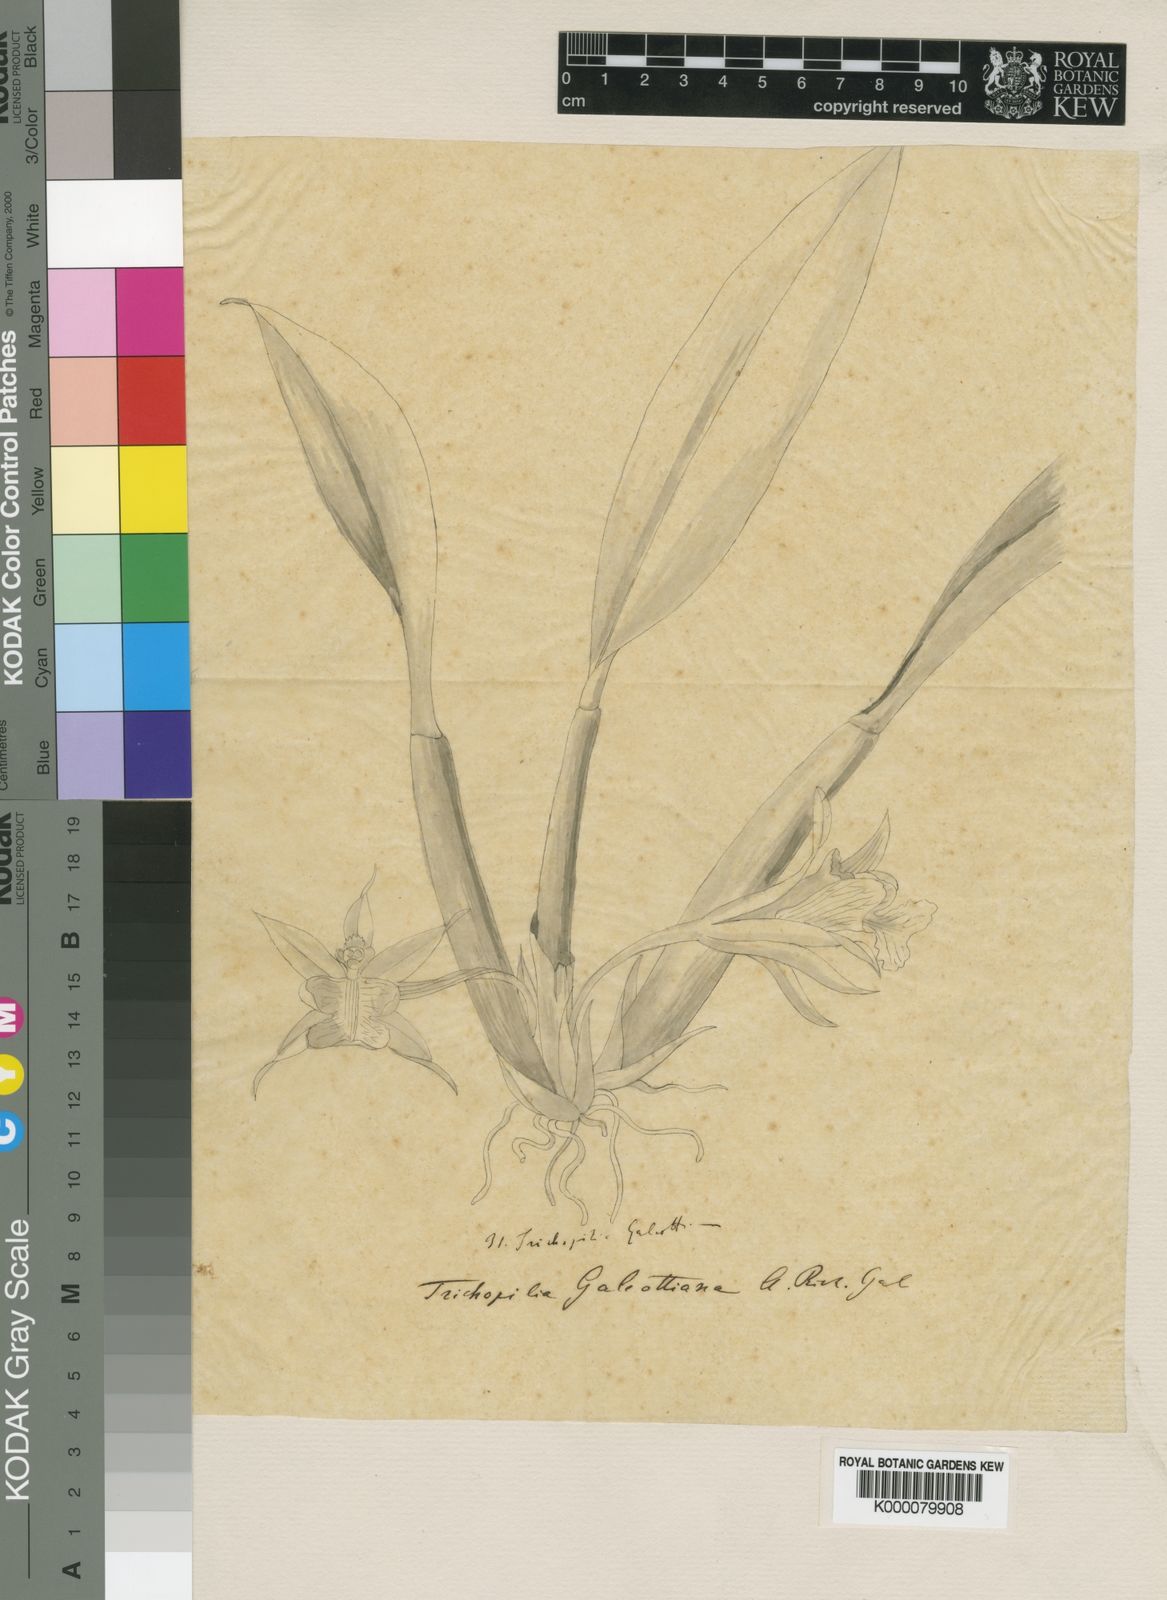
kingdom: Plantae
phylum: Tracheophyta
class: Liliopsida
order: Asparagales
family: Orchidaceae
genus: Trichopilia
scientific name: Trichopilia galeottiana
